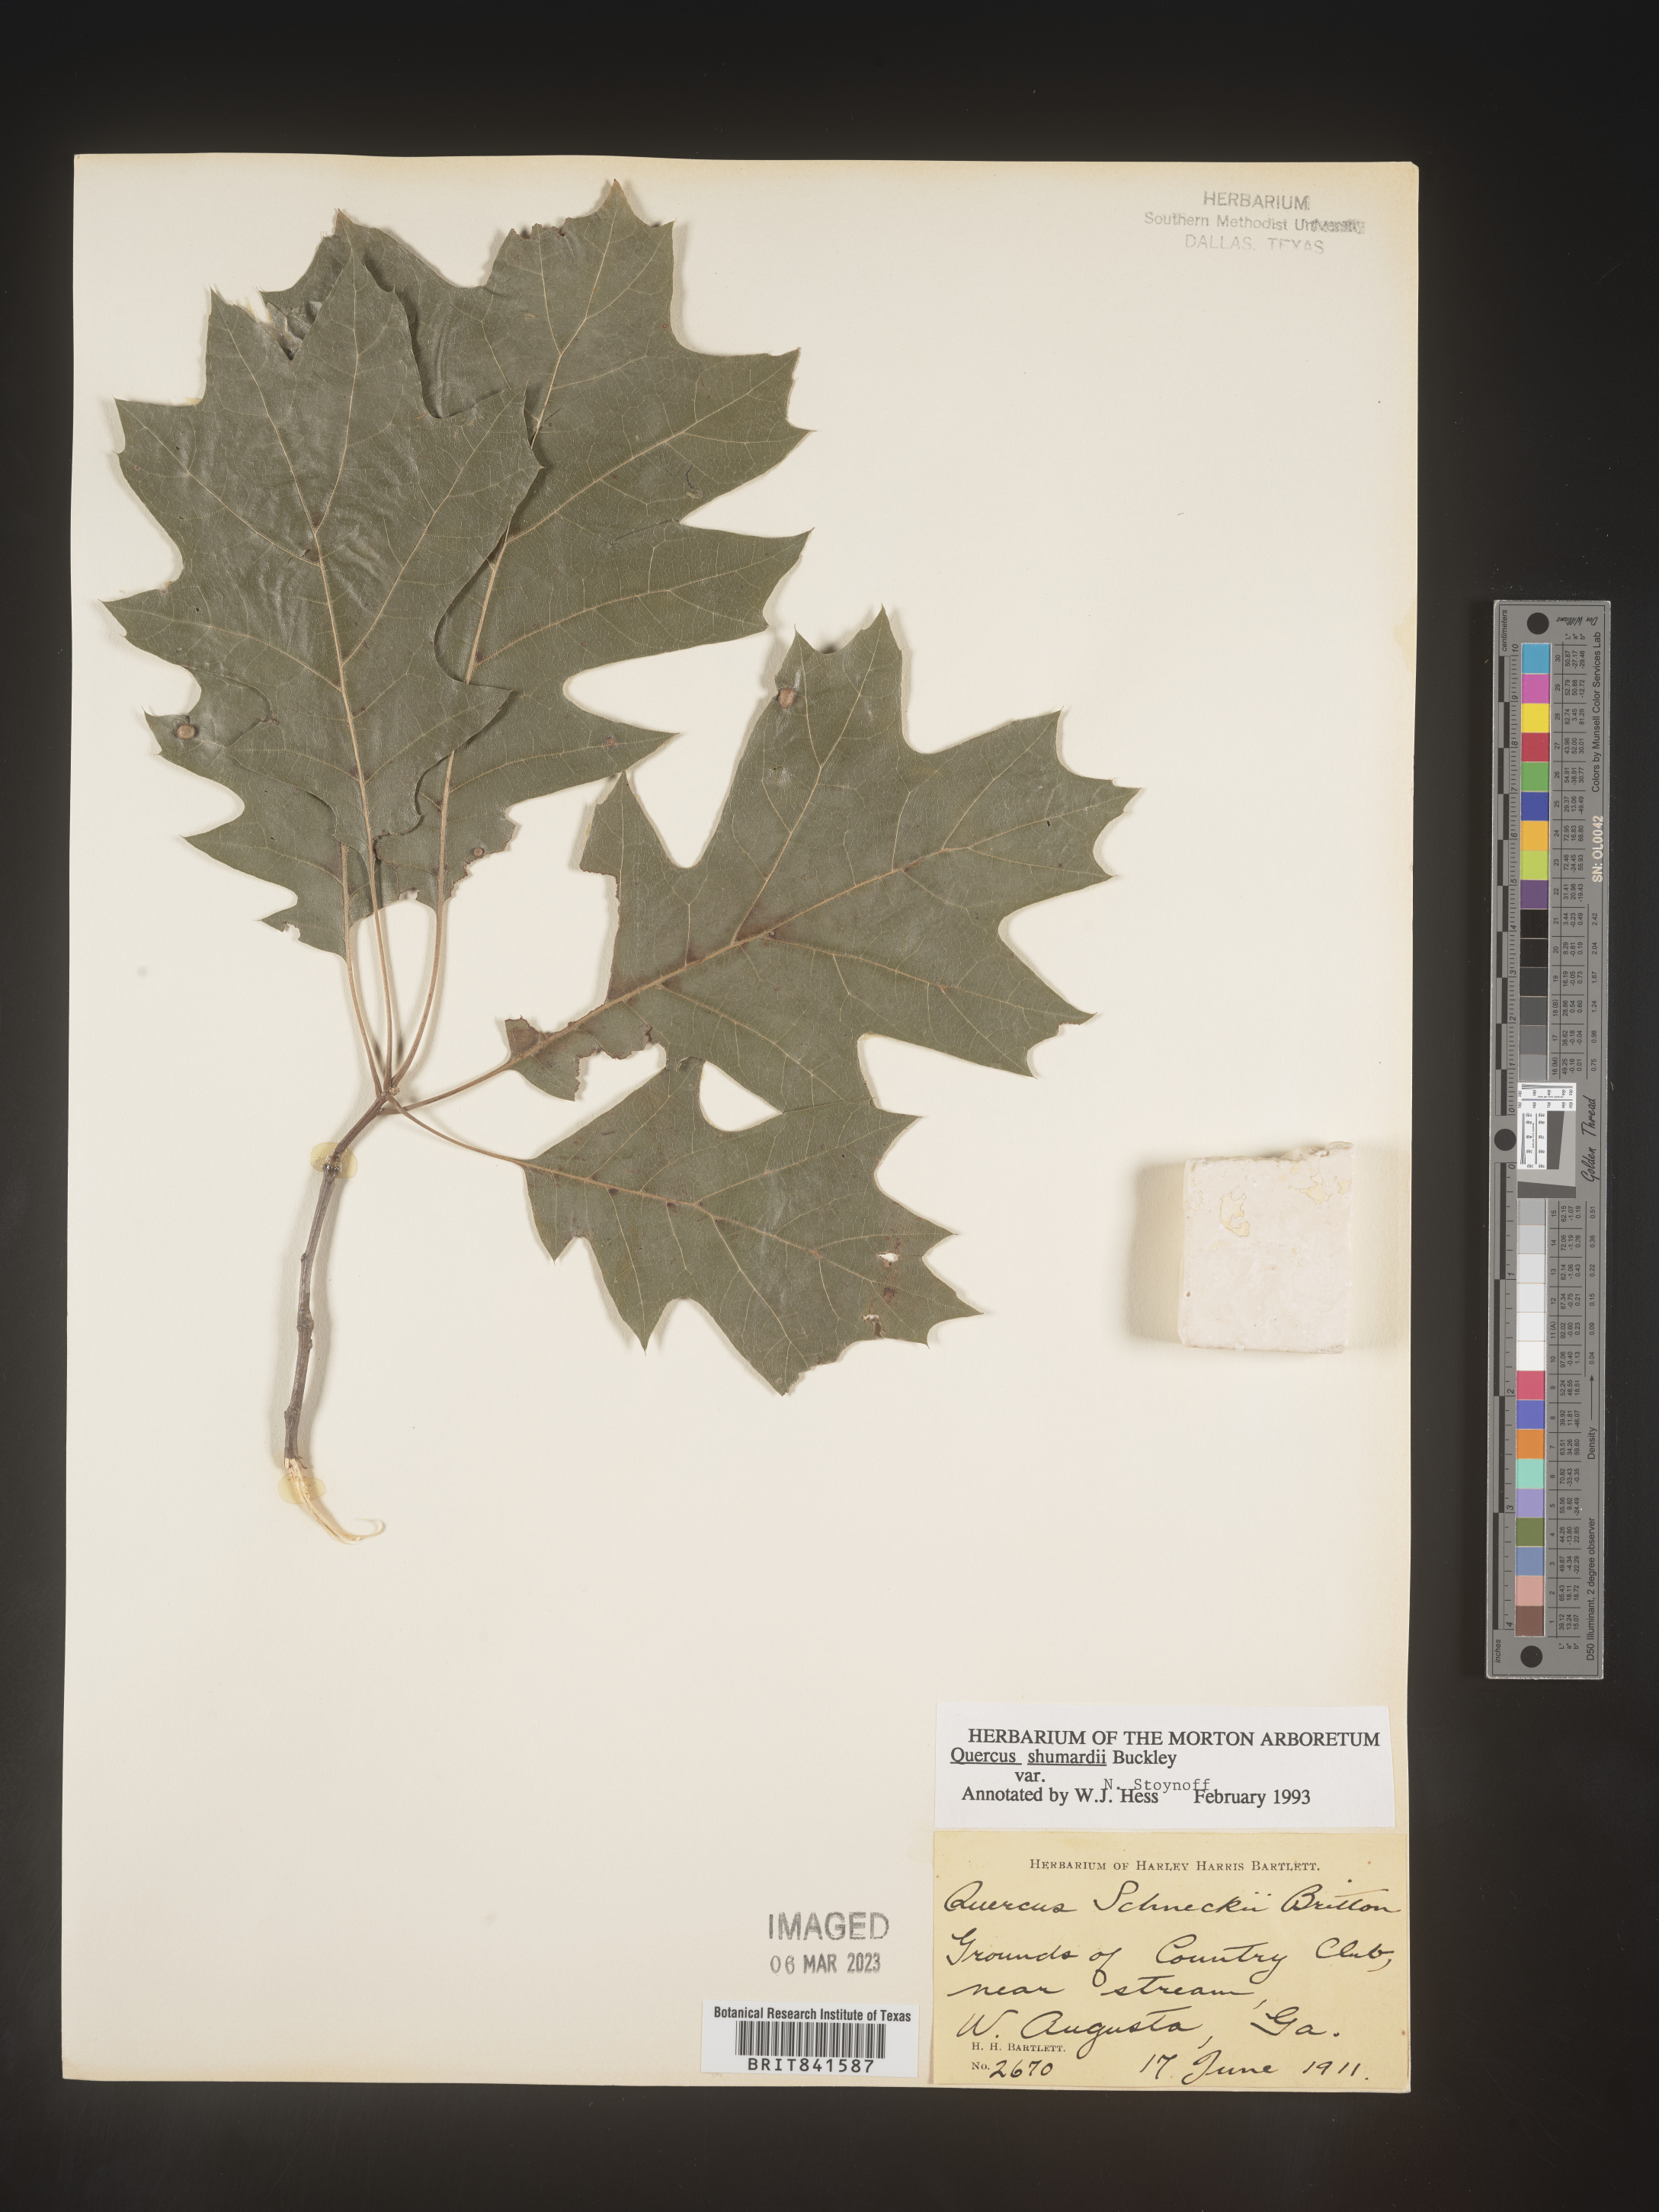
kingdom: Plantae
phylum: Tracheophyta
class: Magnoliopsida
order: Fagales
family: Fagaceae
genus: Quercus
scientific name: Quercus shumardii
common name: Shumard oak
